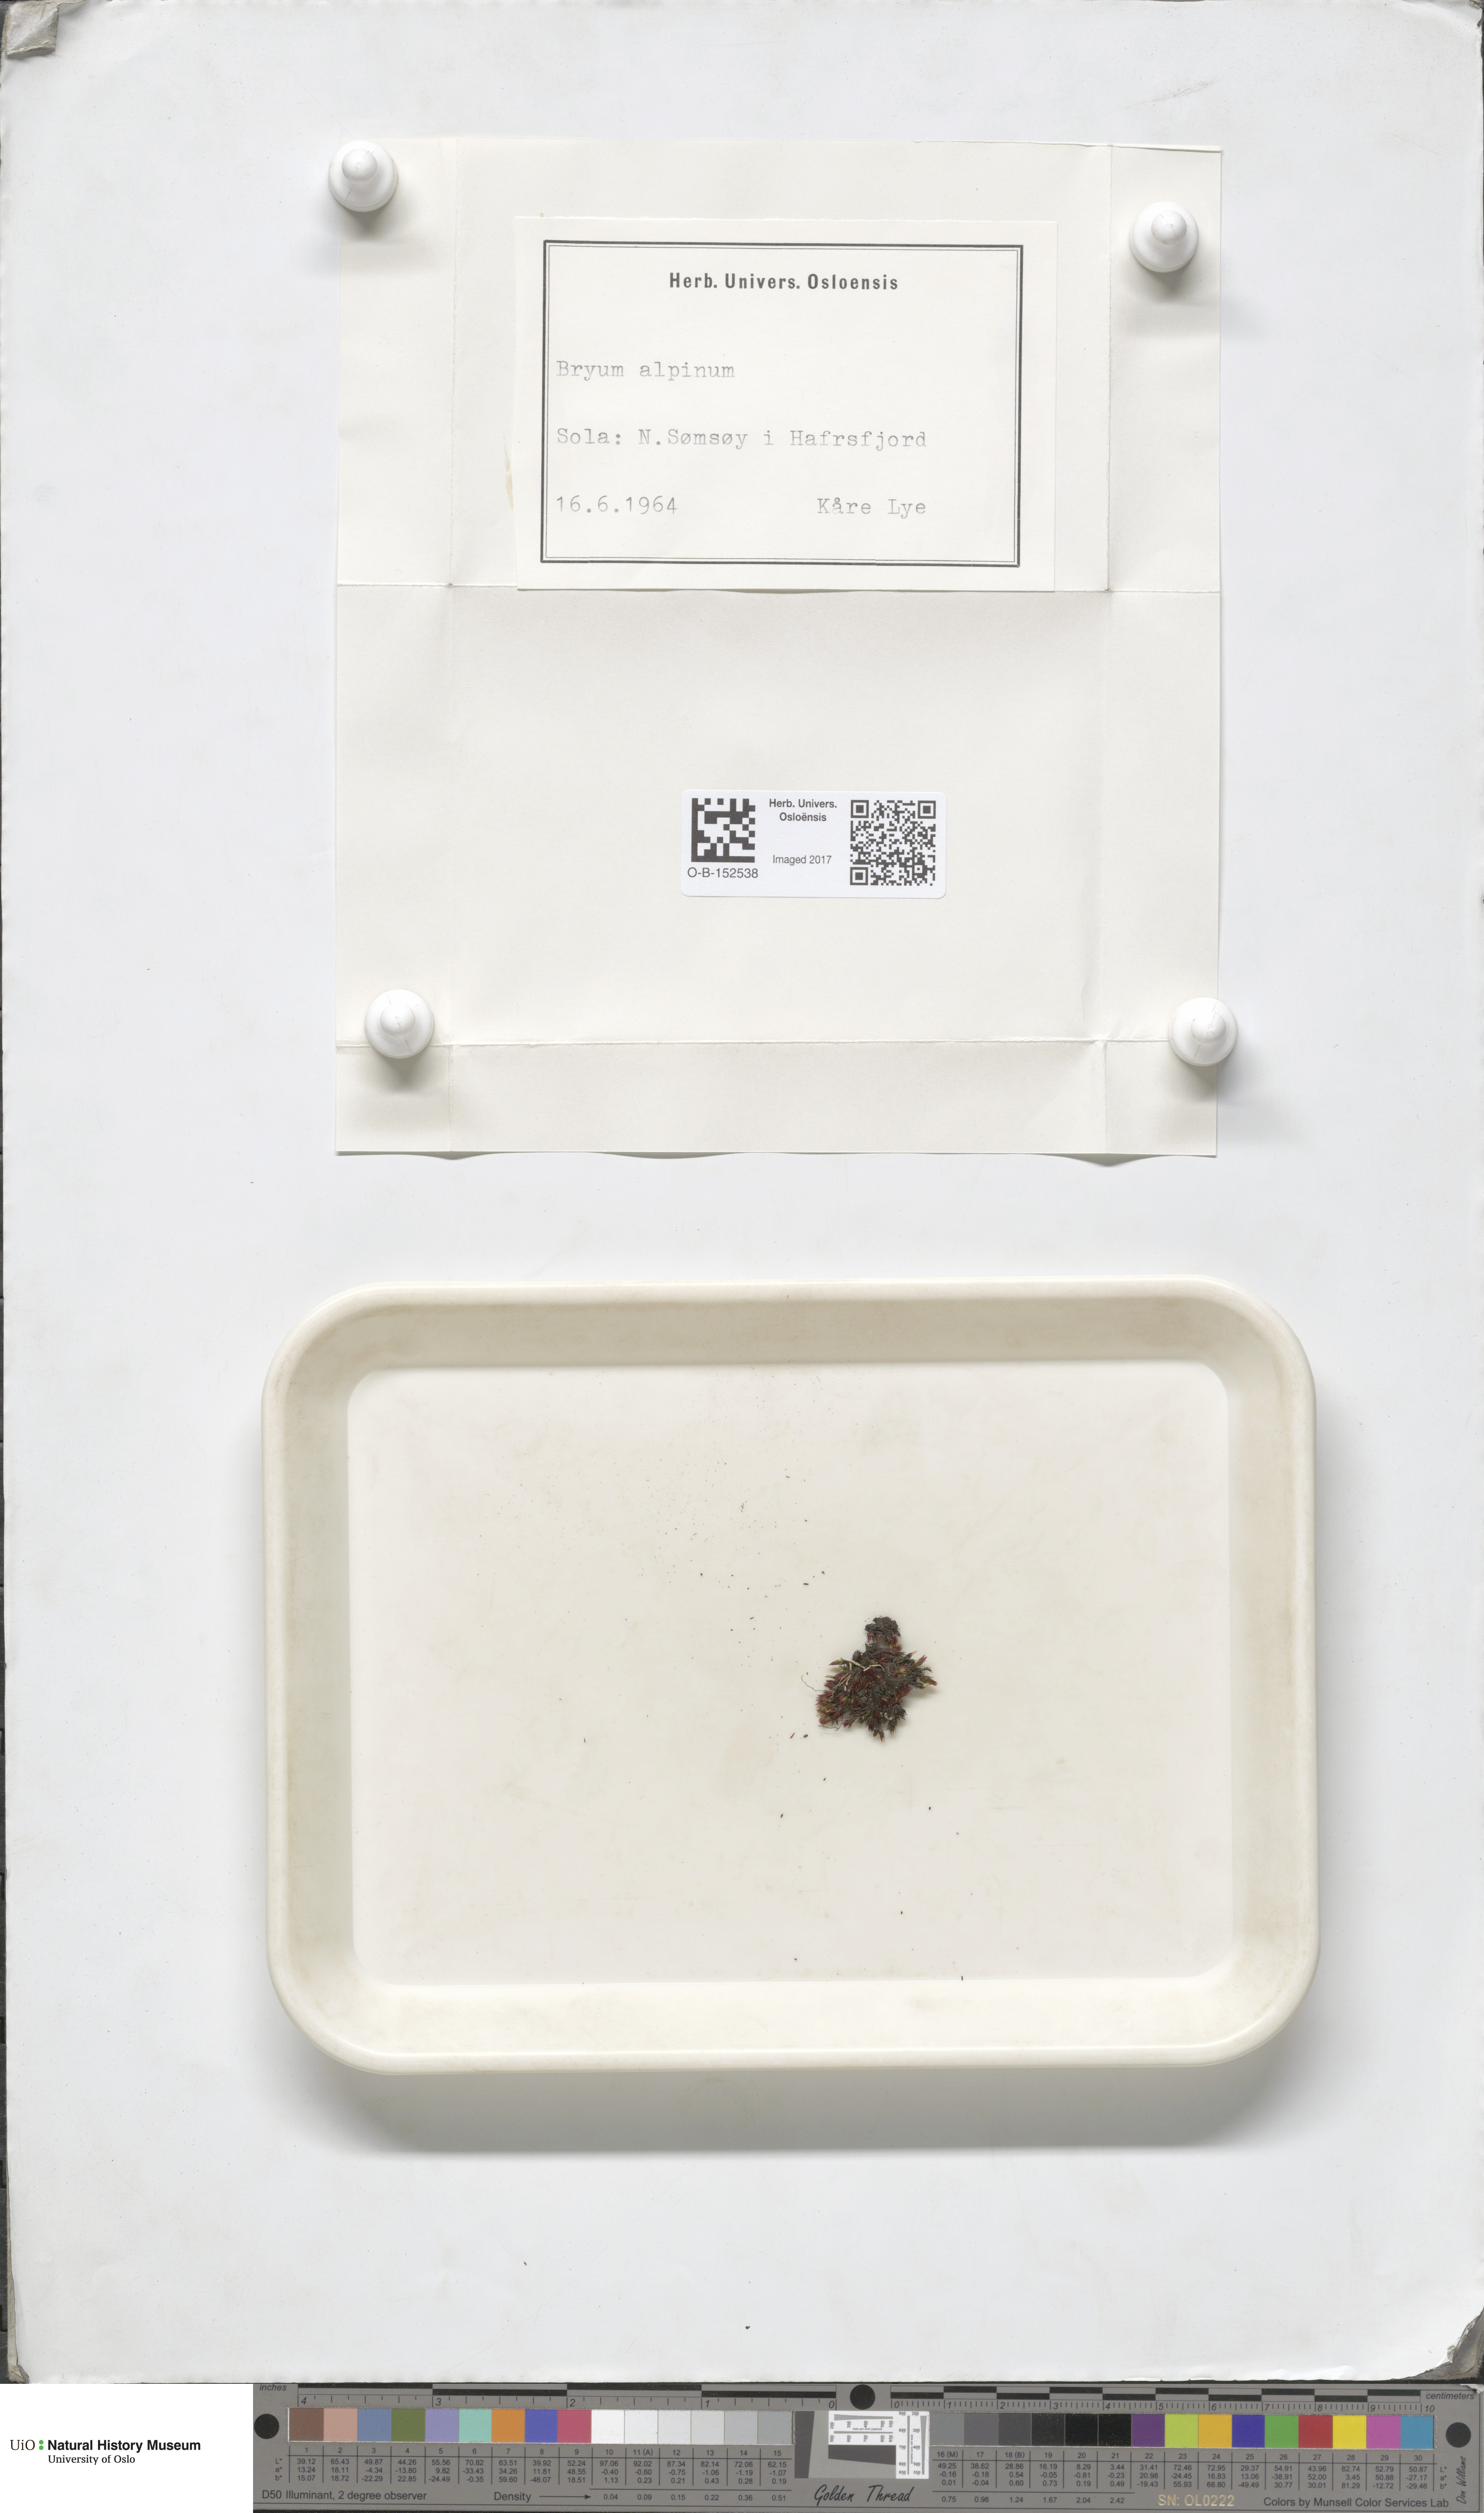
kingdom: Plantae
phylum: Bryophyta
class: Bryopsida
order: Bryales
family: Bryaceae
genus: Imbribryum
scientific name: Imbribryum alpinum
